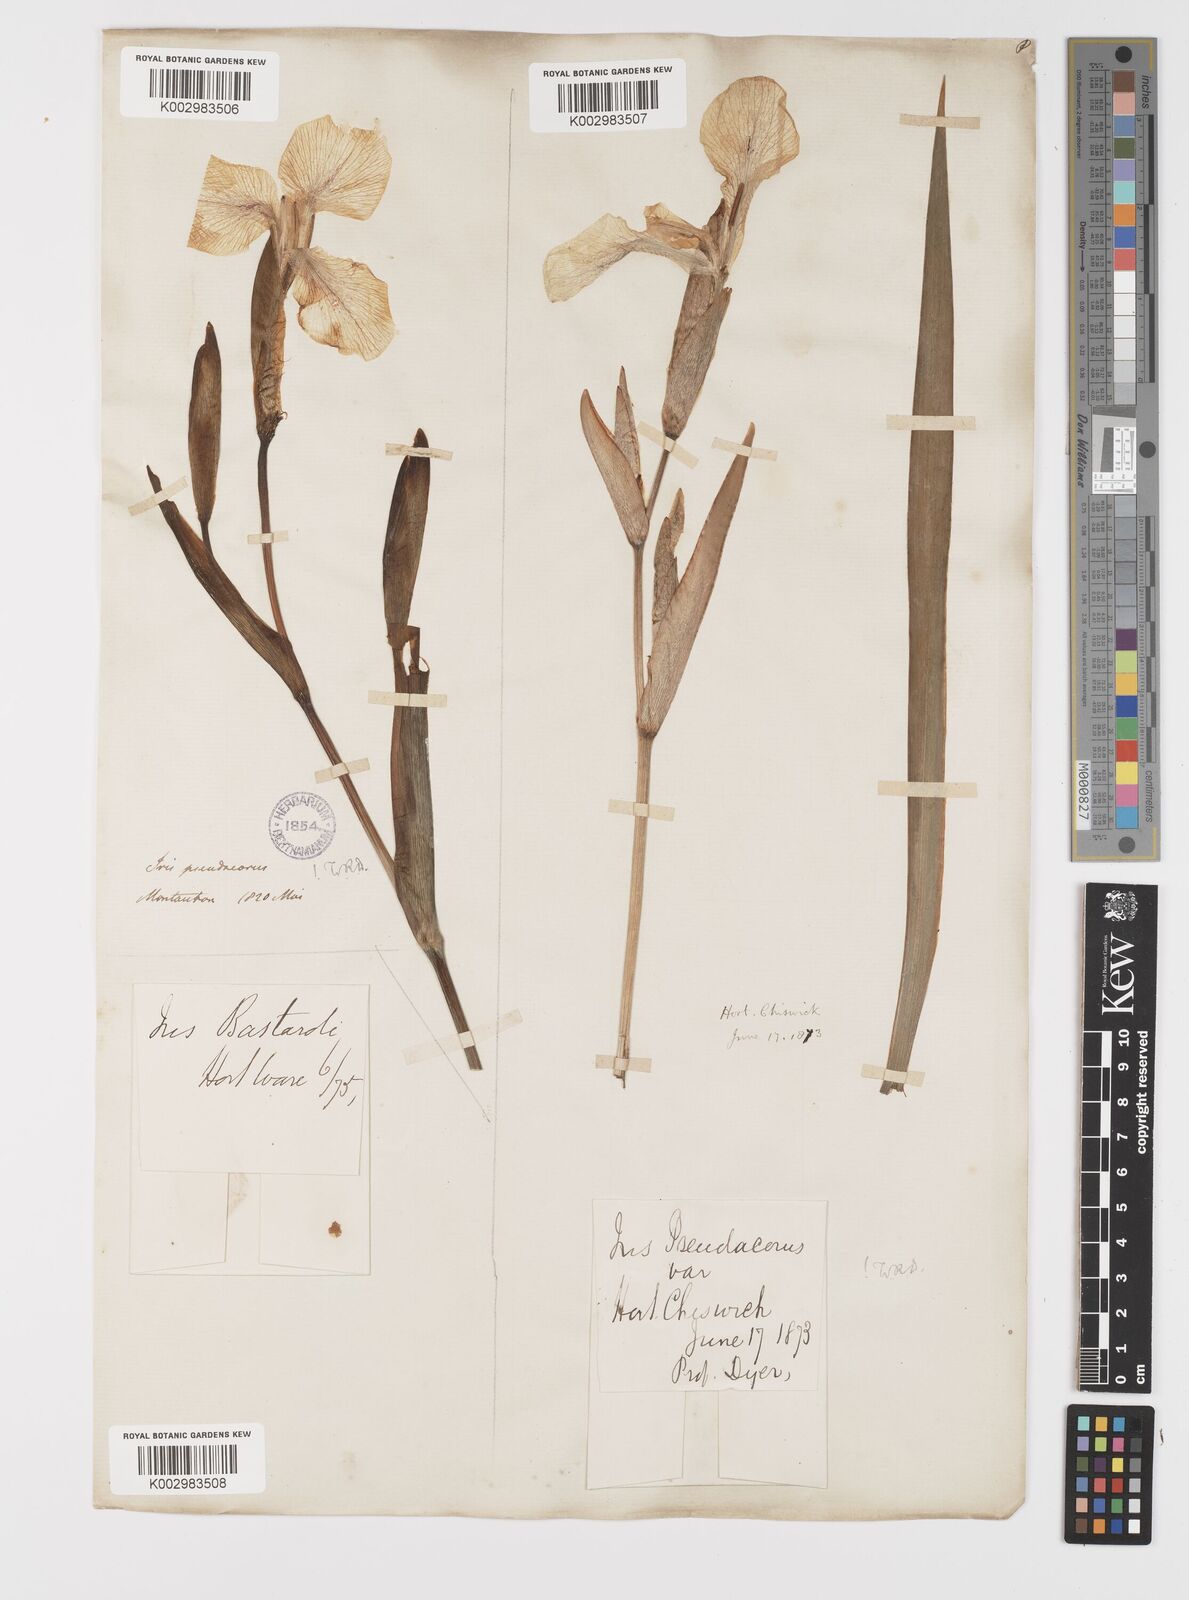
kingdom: Plantae
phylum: Tracheophyta
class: Liliopsida
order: Asparagales
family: Iridaceae
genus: Iris
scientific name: Iris pseudacorus
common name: Yellow flag
